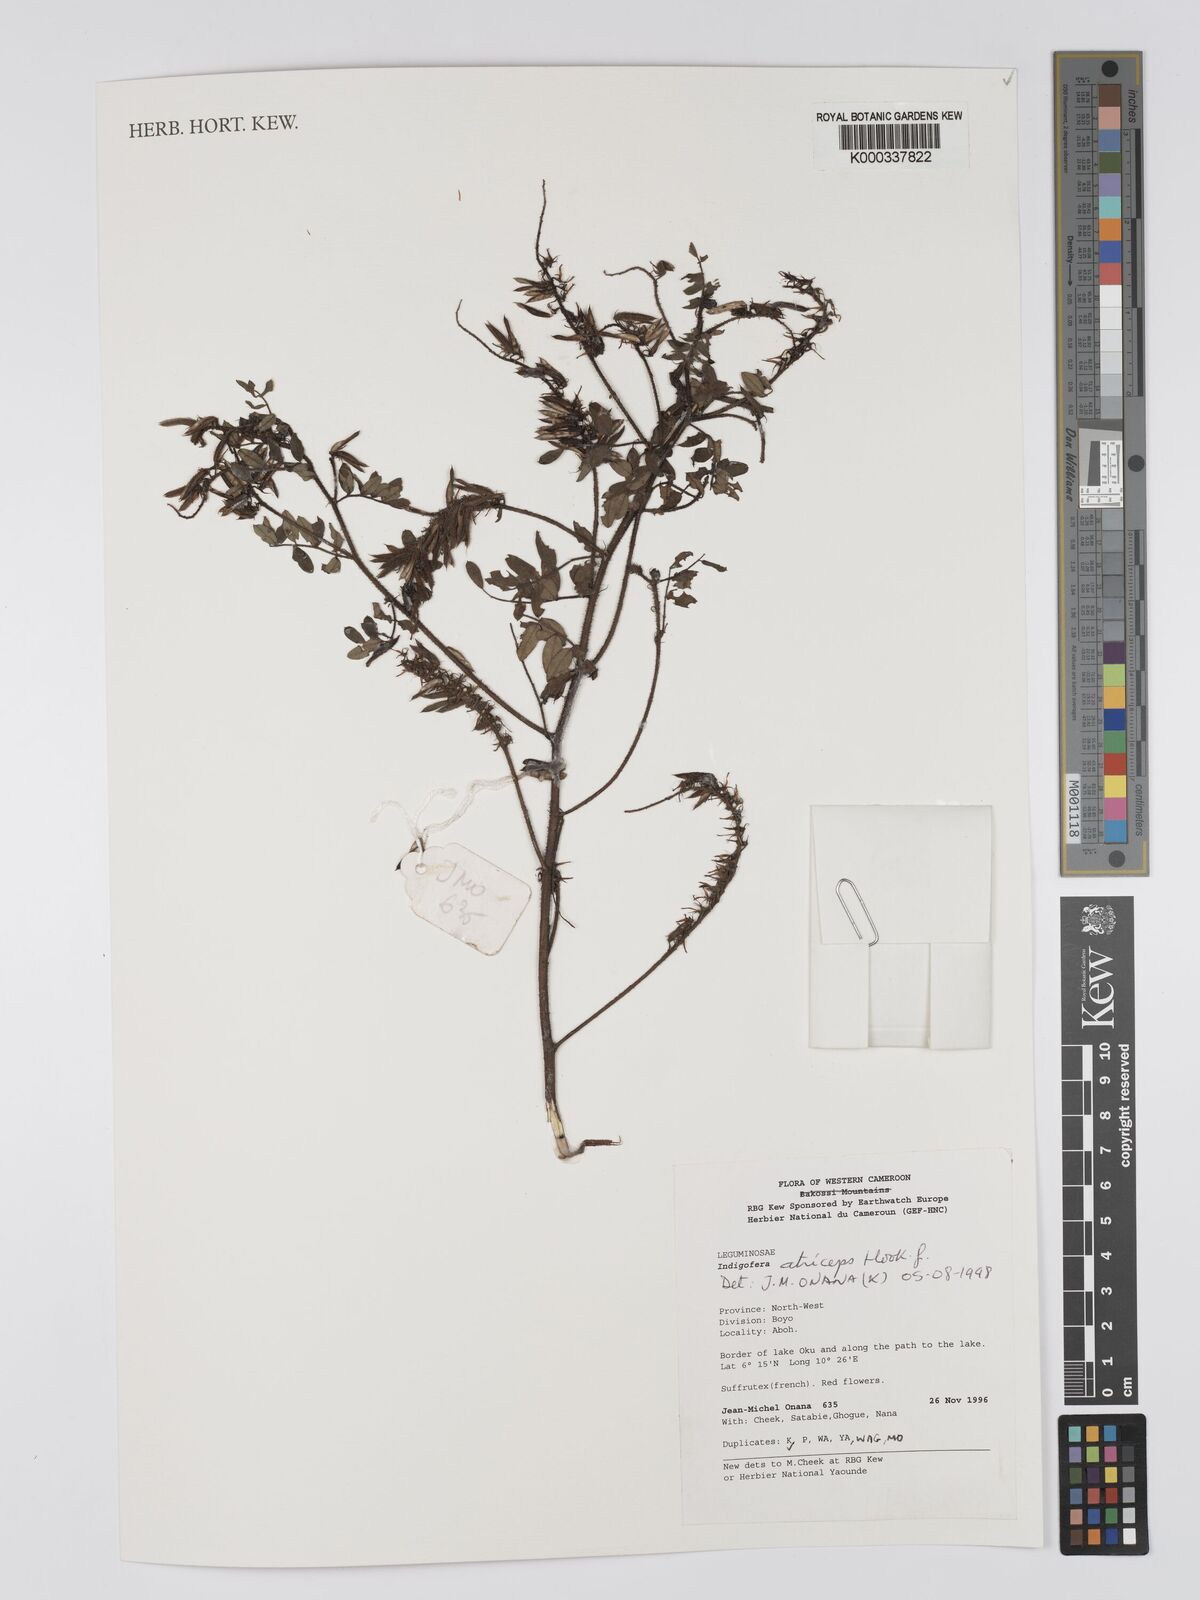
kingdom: Plantae
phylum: Tracheophyta
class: Magnoliopsida
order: Fabales
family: Fabaceae
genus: Indigofera
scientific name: Indigofera atriceps
